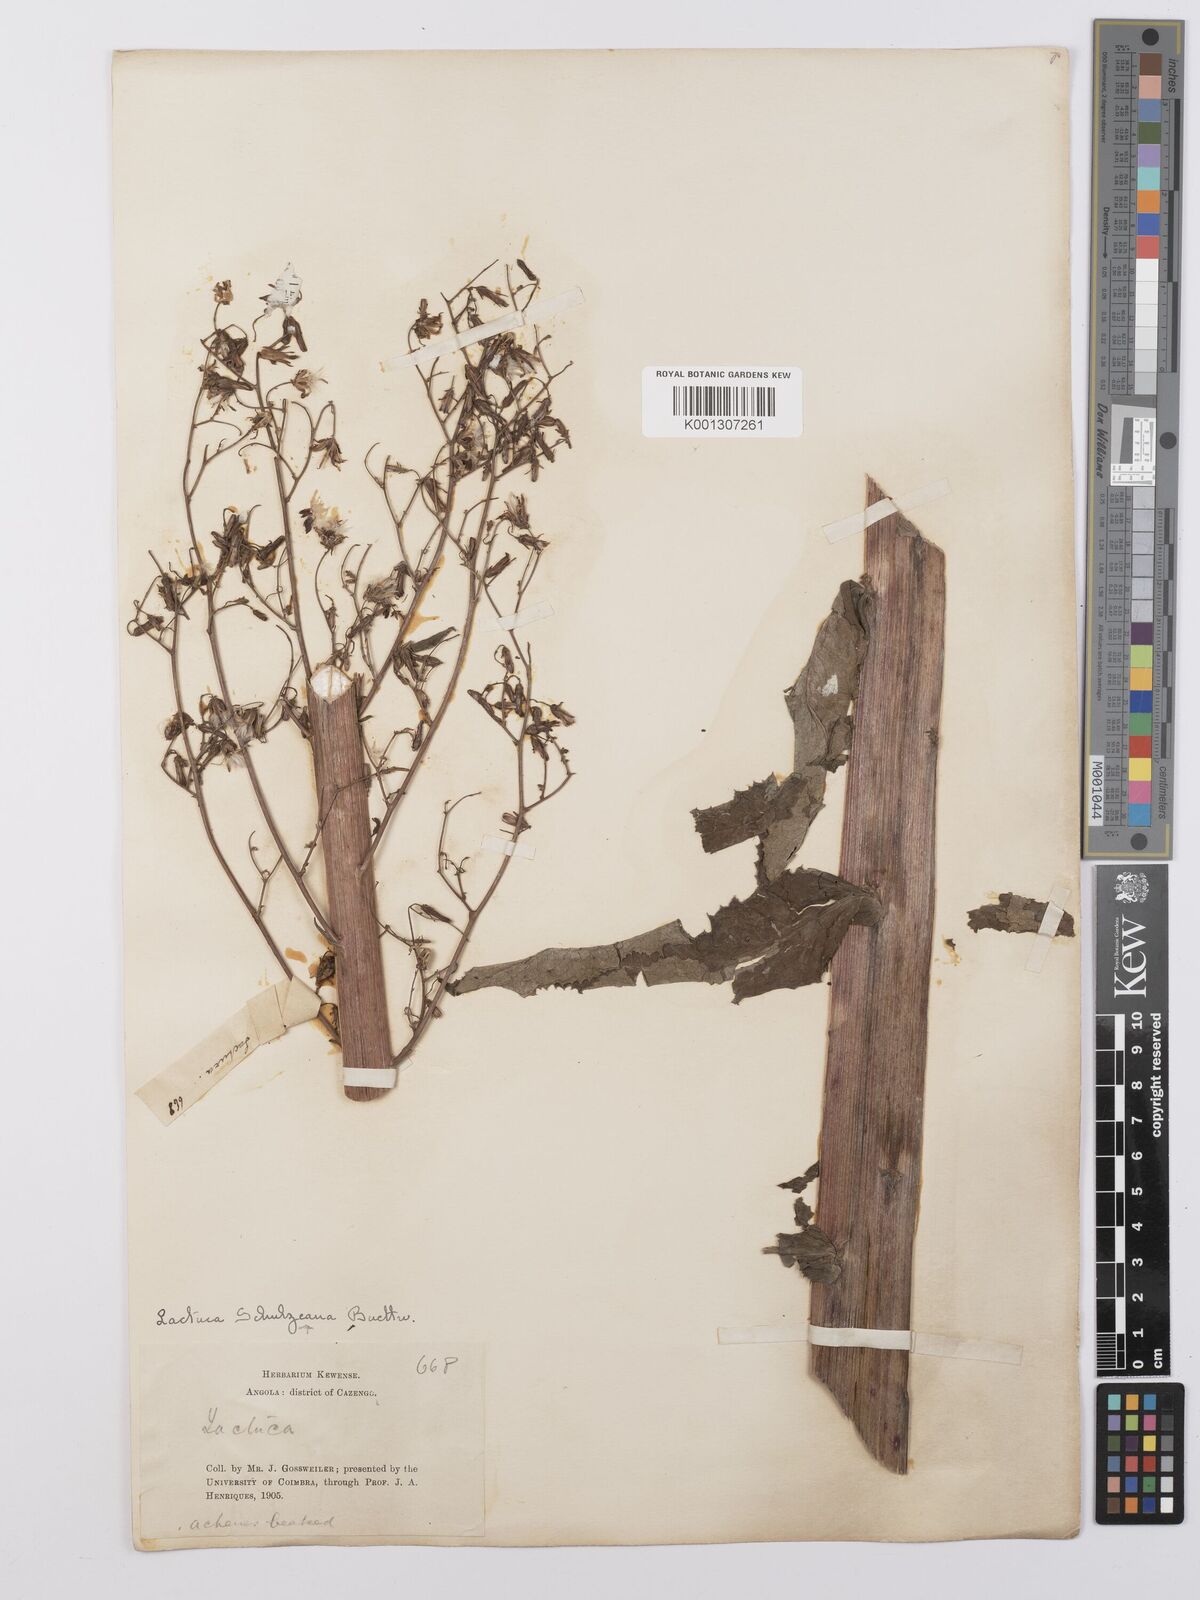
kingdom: Plantae
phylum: Tracheophyta
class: Magnoliopsida
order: Asterales
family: Asteraceae
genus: Lactuca
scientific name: Lactuca
